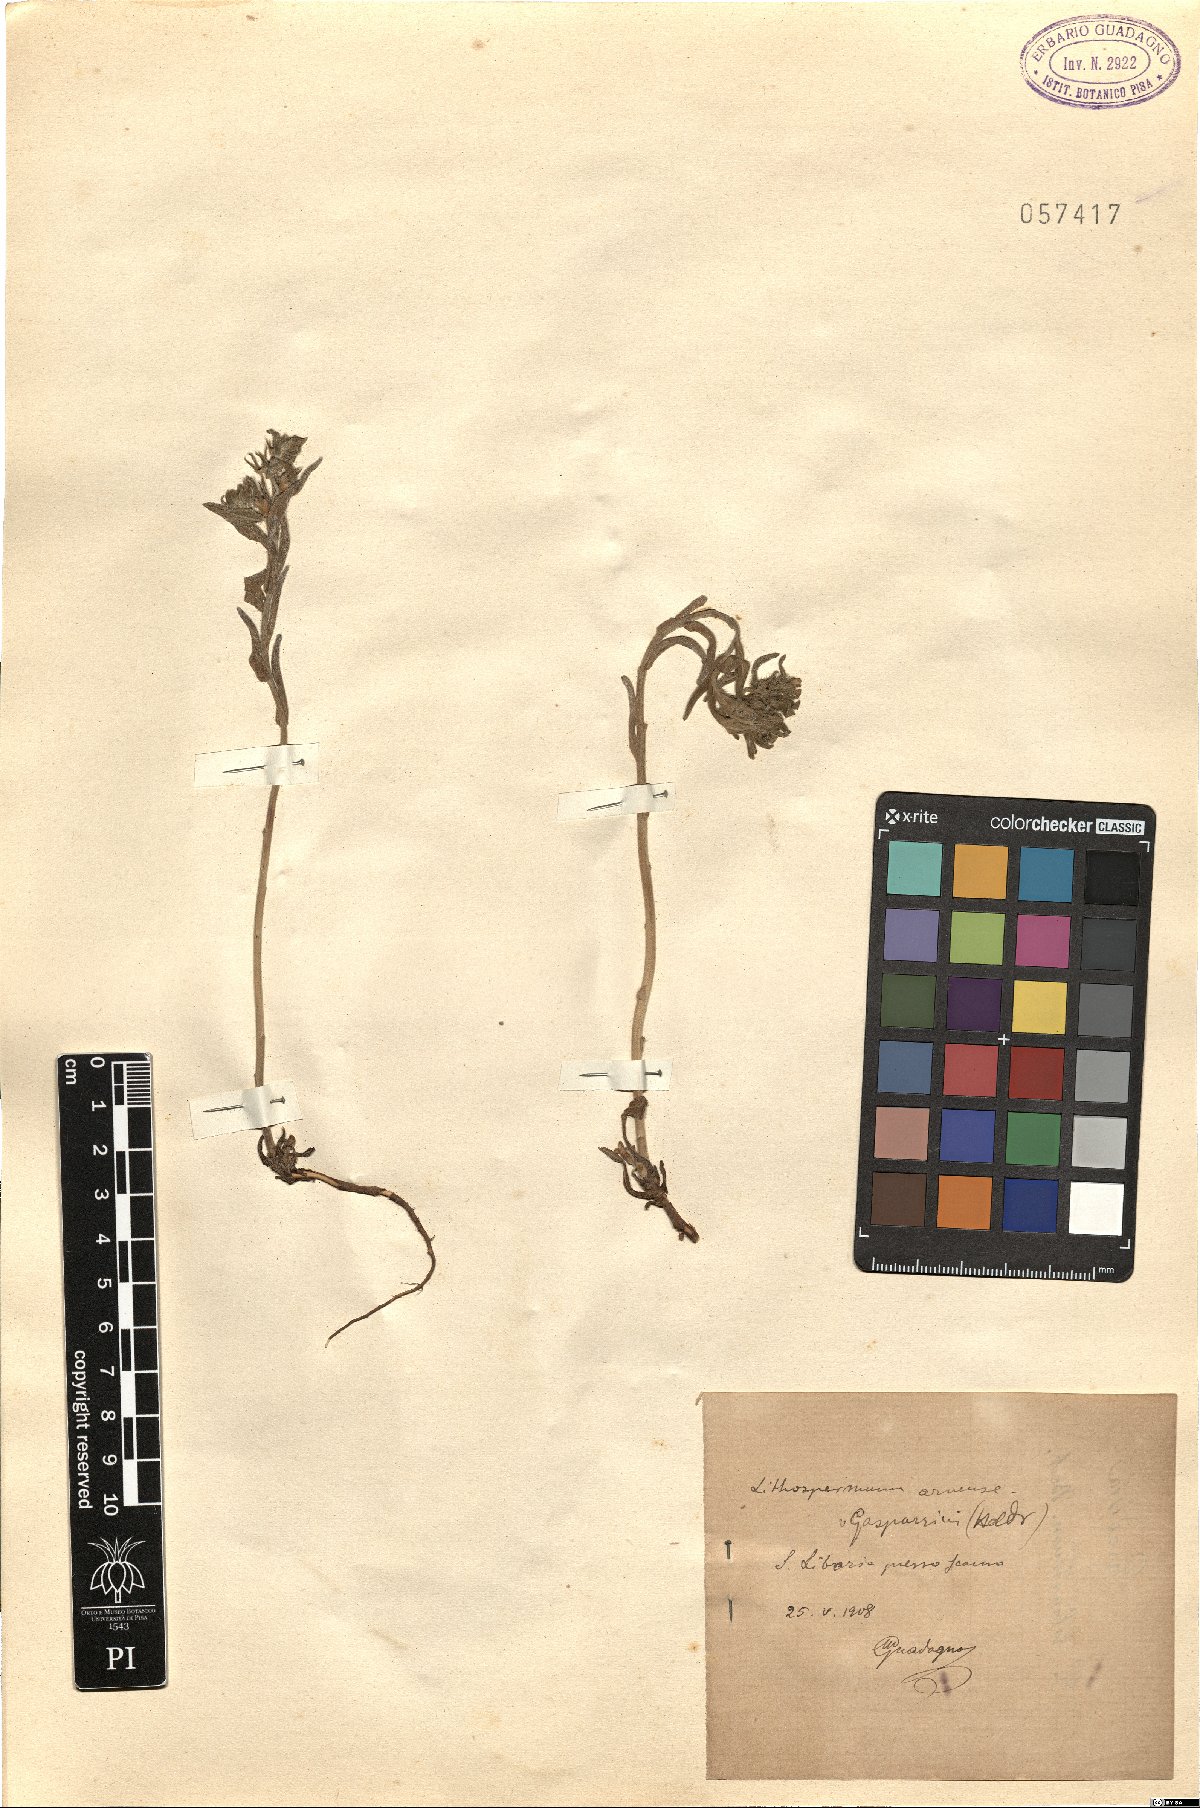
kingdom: Plantae
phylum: Tracheophyta
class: Magnoliopsida
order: Boraginales
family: Boraginaceae
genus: Buglossoides
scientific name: Buglossoides incrassata
